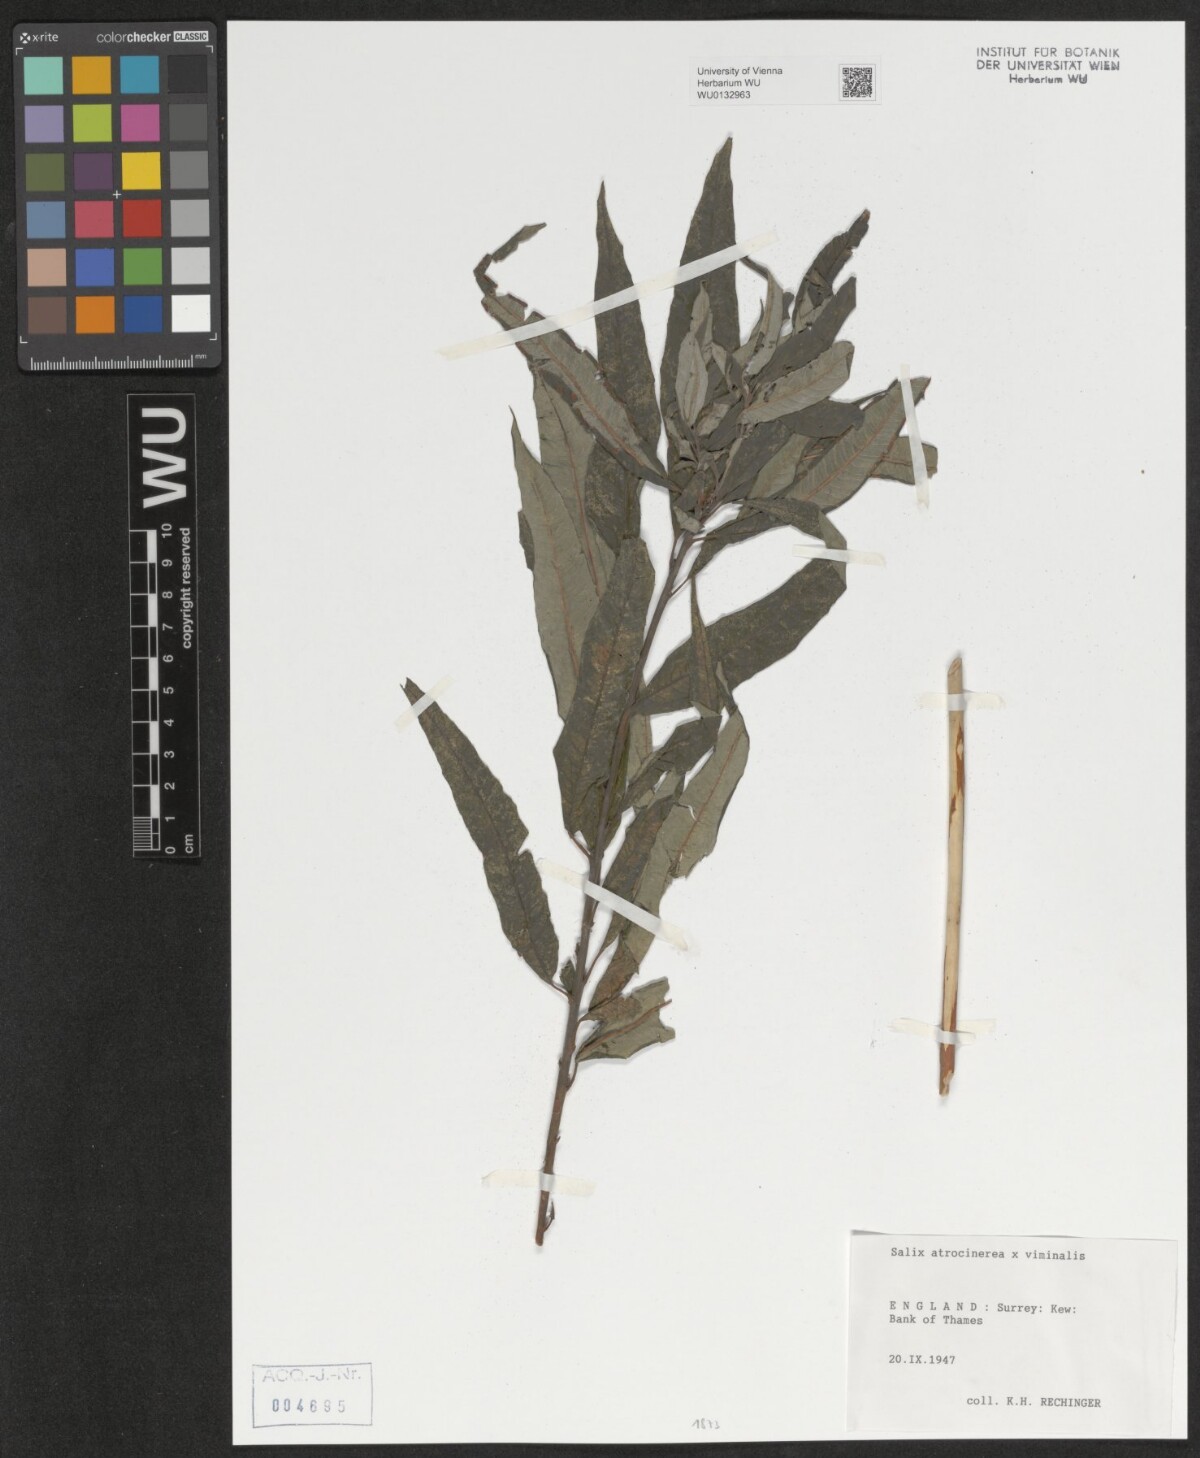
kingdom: Plantae
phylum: Tracheophyta
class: Magnoliopsida
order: Malpighiales
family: Salicaceae
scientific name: Salicaceae
